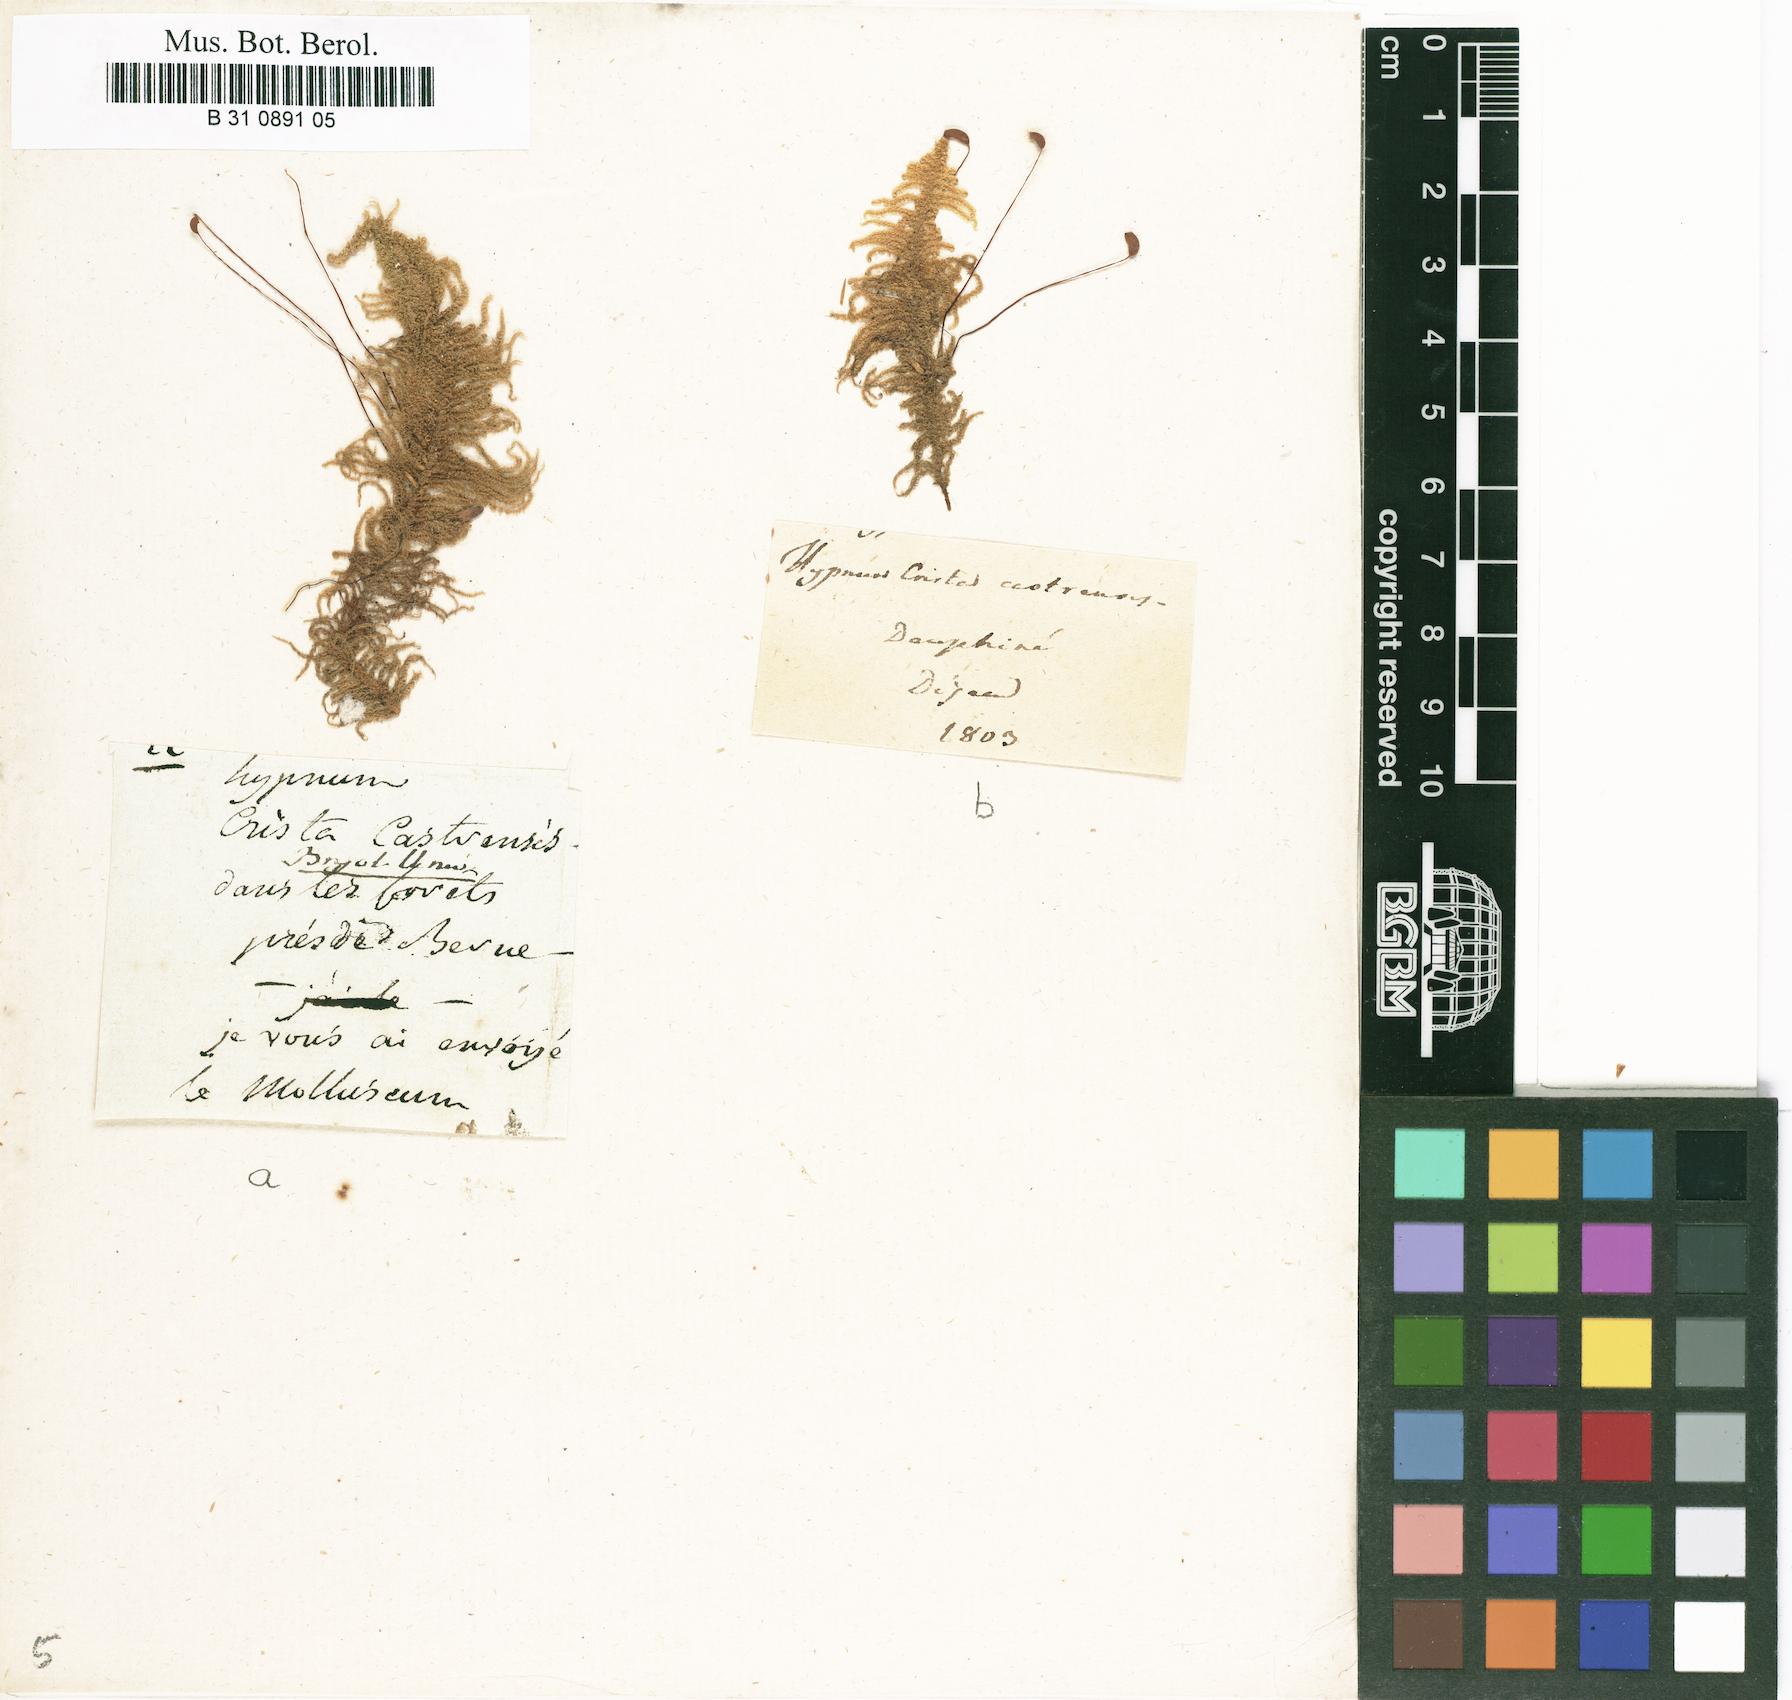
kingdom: Plantae
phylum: Bryophyta
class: Bryopsida
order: Hypnales
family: Pylaisiaceae
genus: Ptilium
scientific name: Ptilium crista-castrensis
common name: Knight's plume moss
